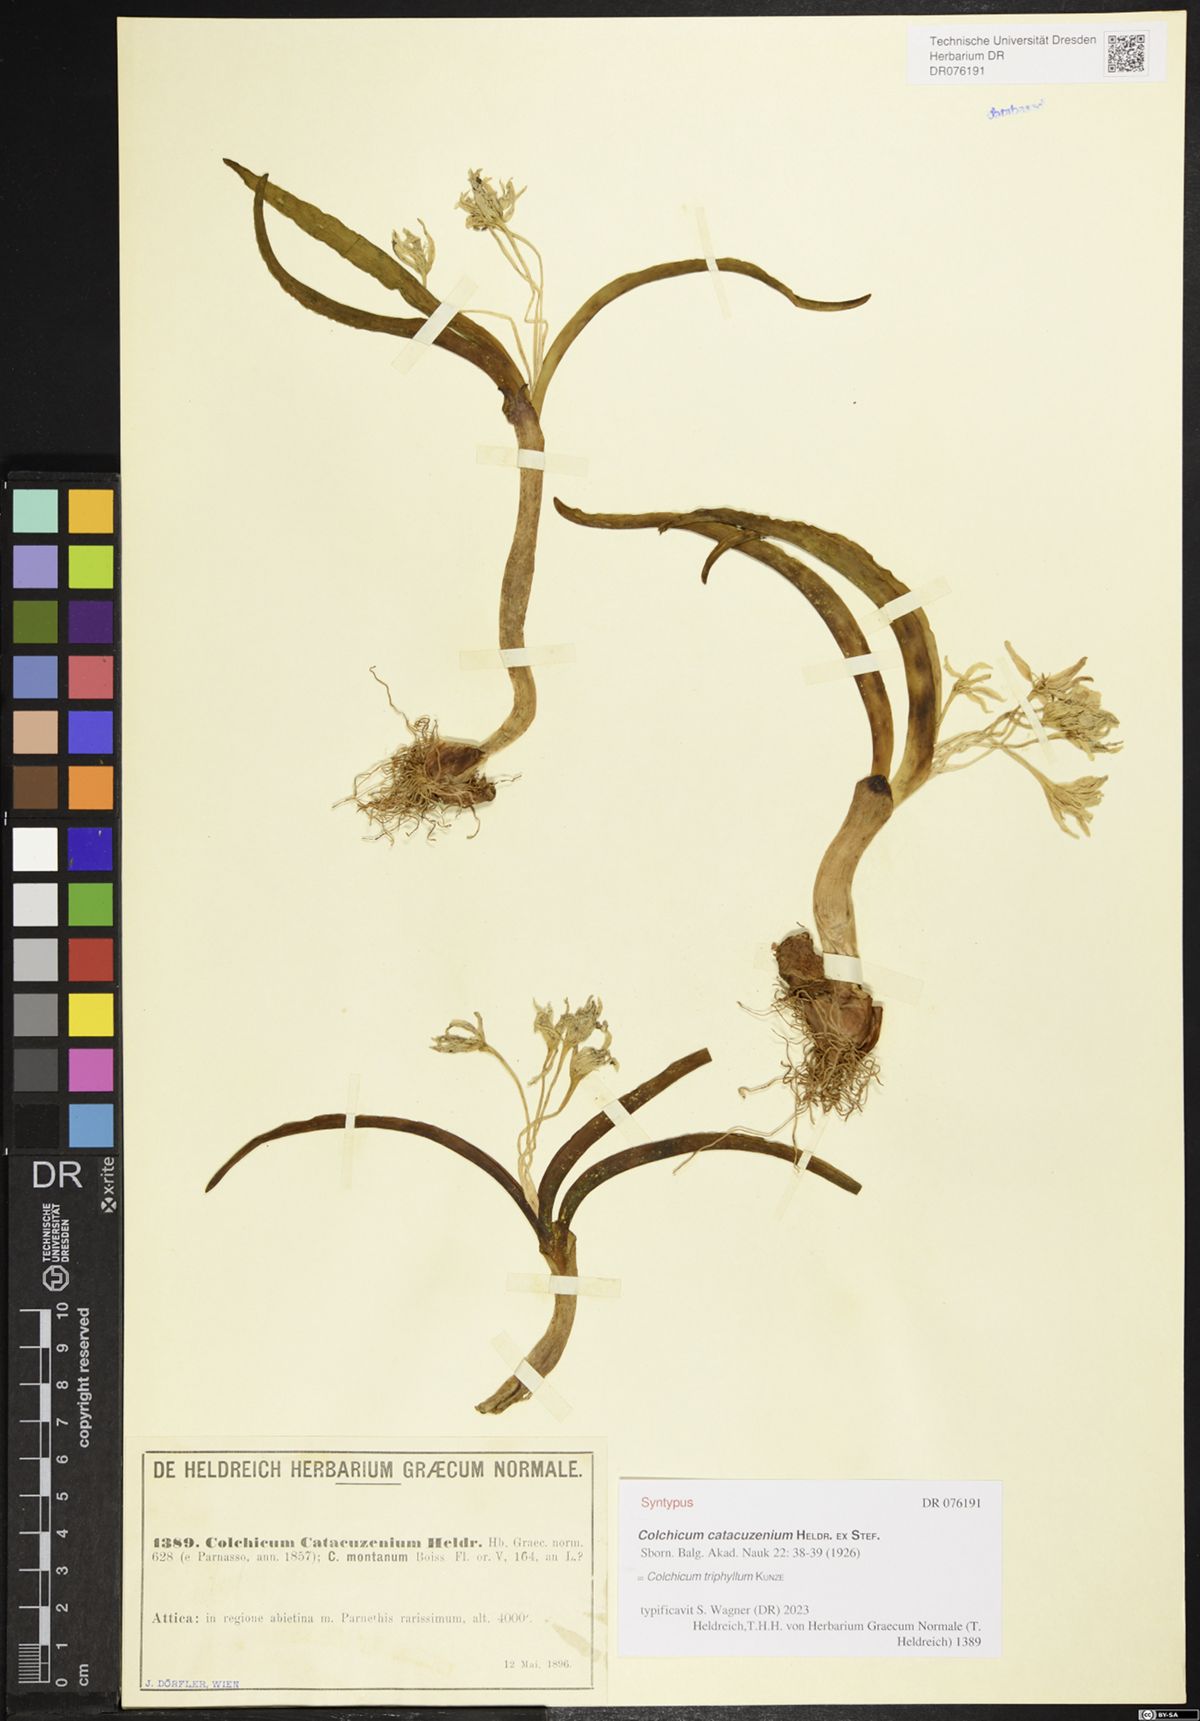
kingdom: Plantae
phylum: Tracheophyta
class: Liliopsida
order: Liliales
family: Colchicaceae
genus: Colchicum
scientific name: Colchicum triphyllum
